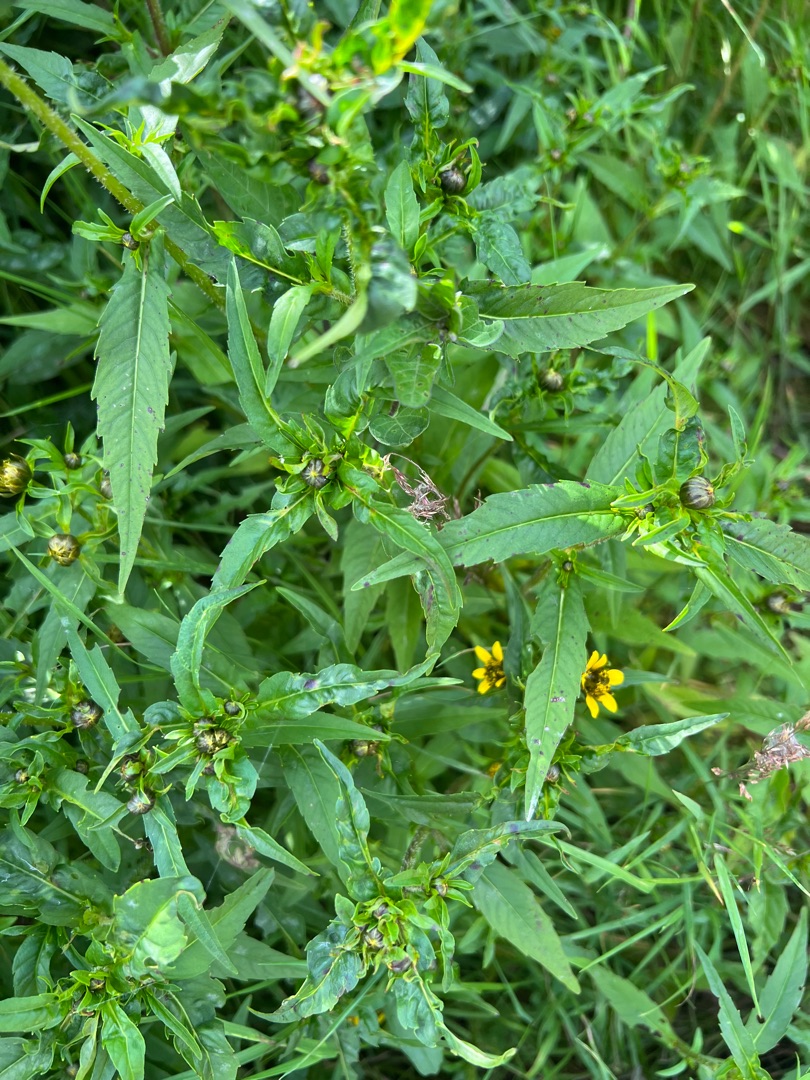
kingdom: Plantae
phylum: Tracheophyta
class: Magnoliopsida
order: Asterales
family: Asteraceae
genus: Bidens
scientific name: Bidens cernua
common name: Nikkende brøndsel
